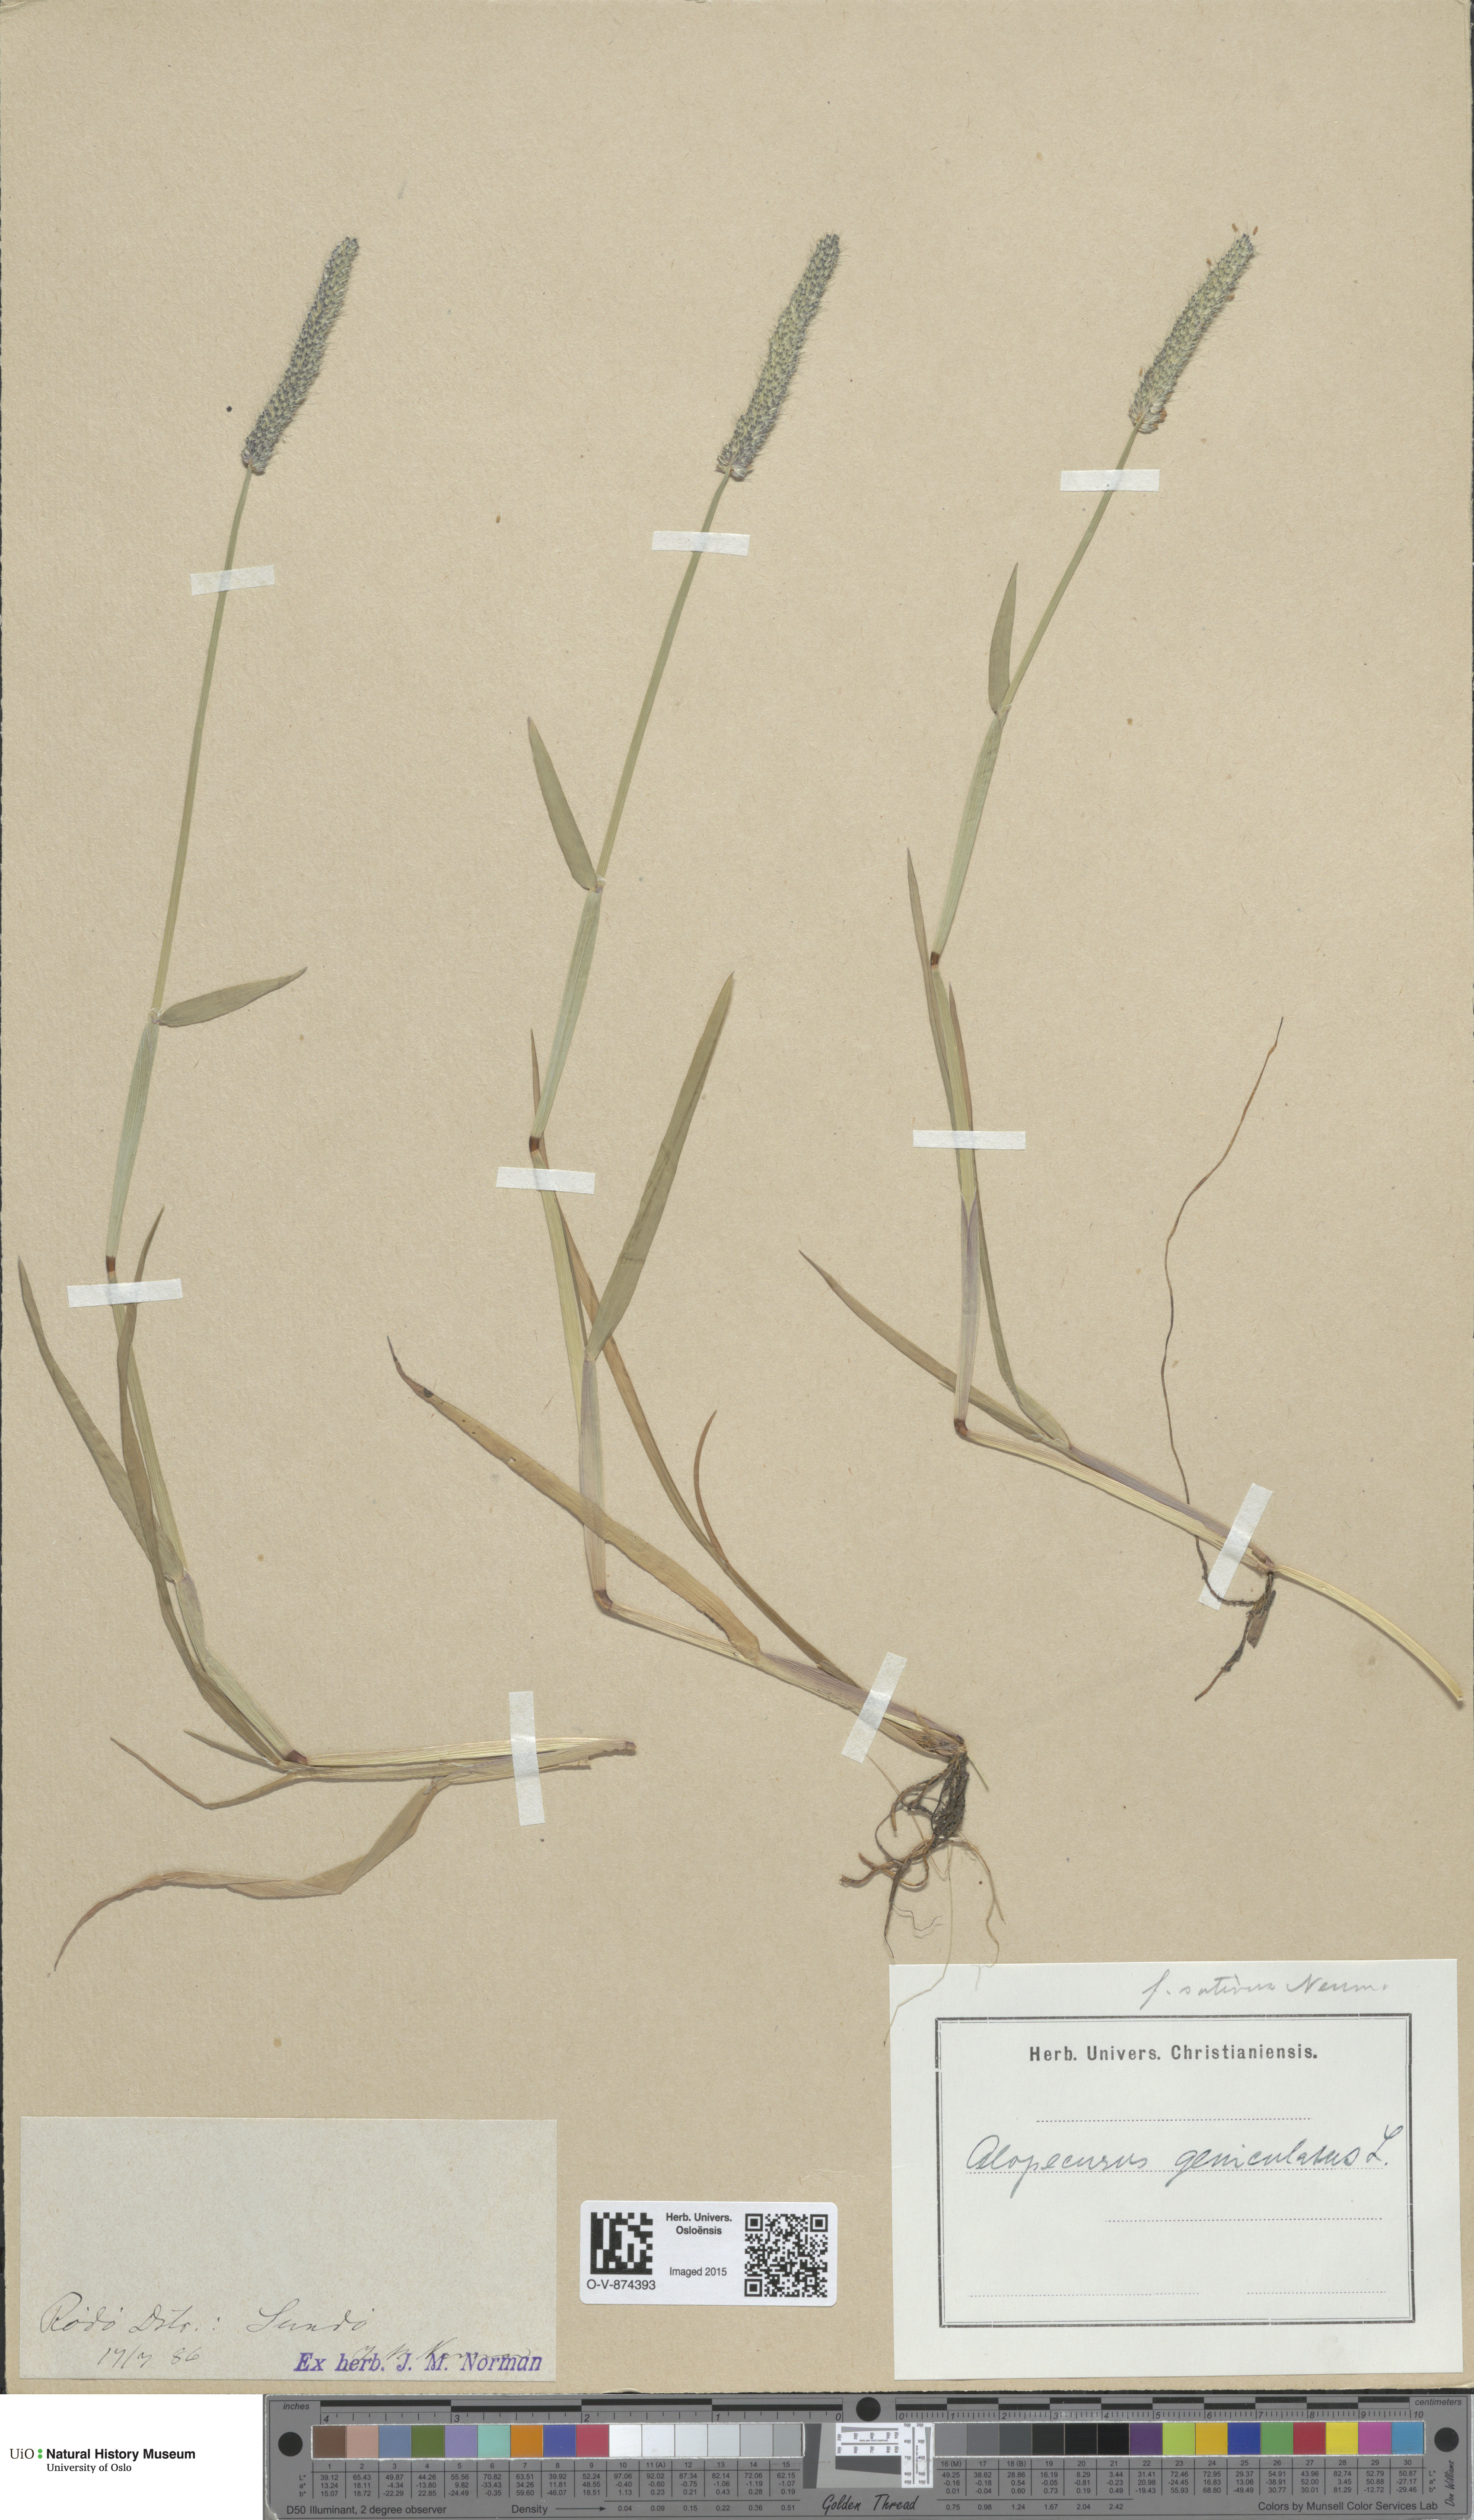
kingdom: Plantae
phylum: Tracheophyta
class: Liliopsida
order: Poales
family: Poaceae
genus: Alopecurus
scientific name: Alopecurus geniculatus
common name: Water foxtail
